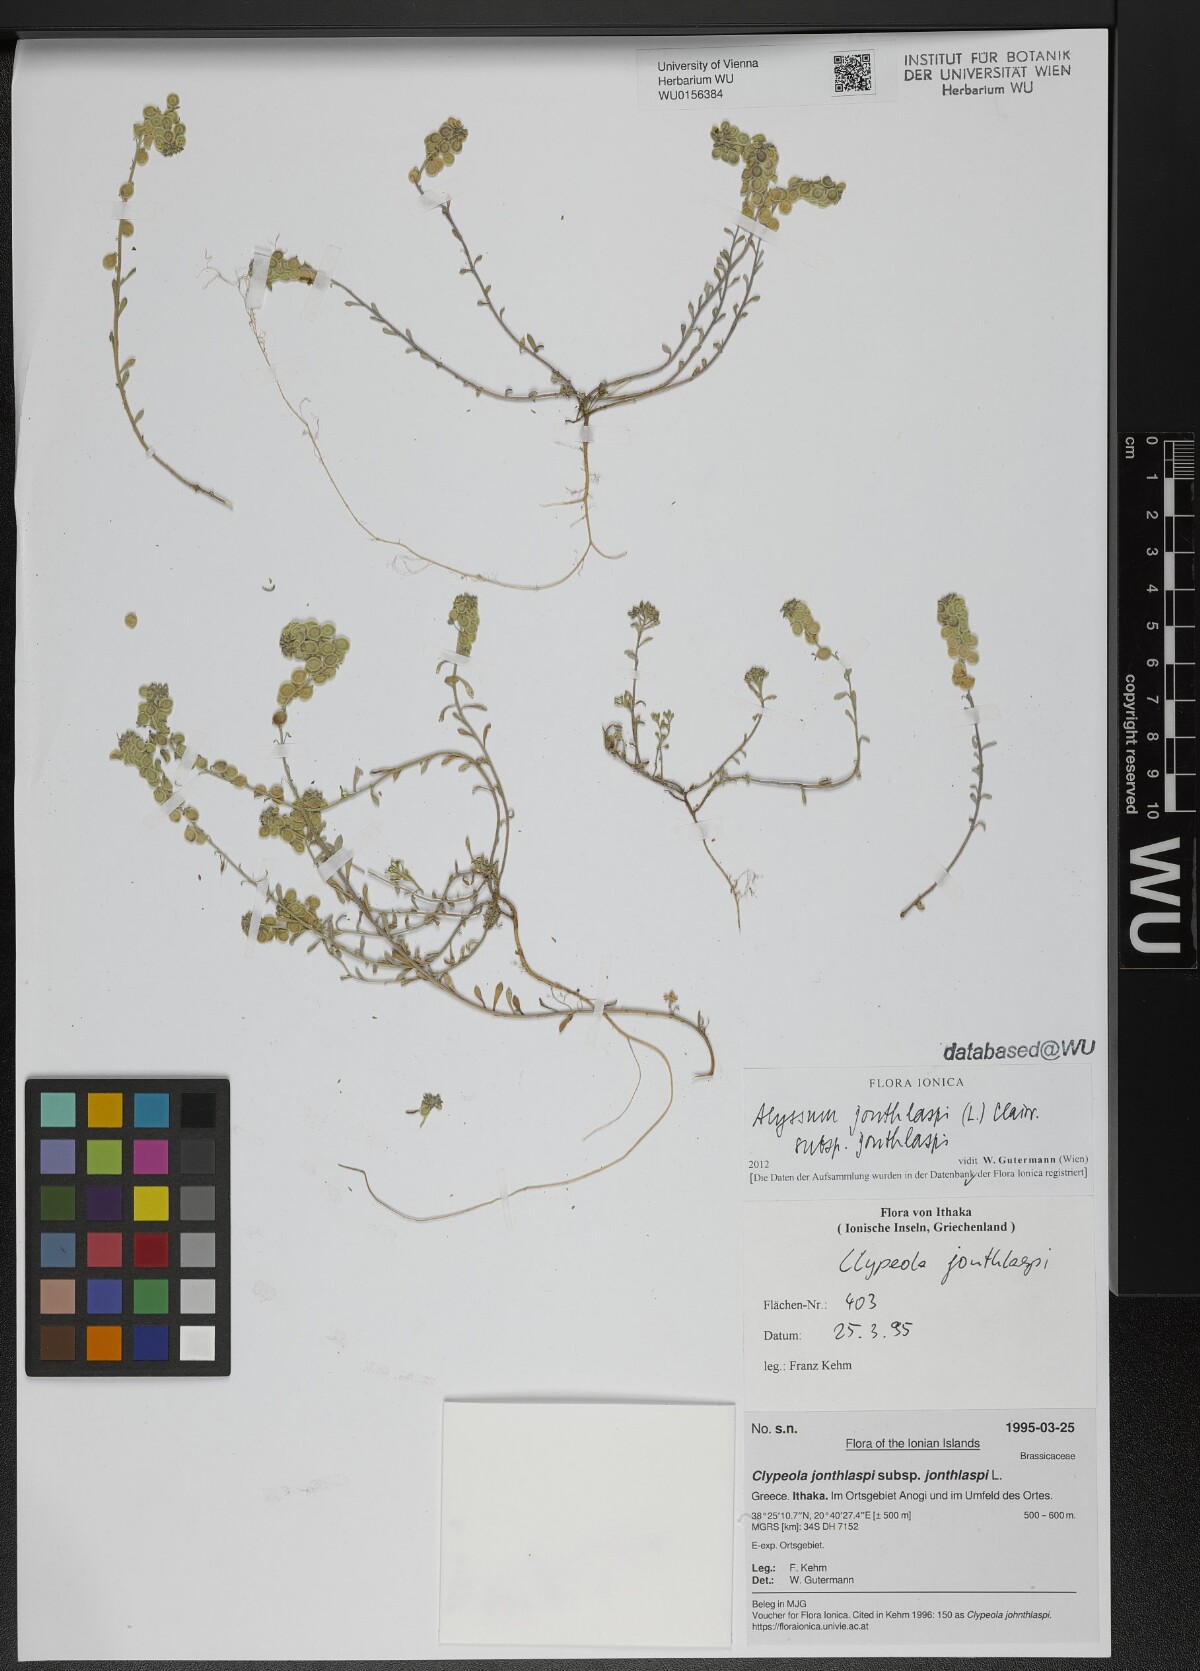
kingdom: Plantae
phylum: Tracheophyta
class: Magnoliopsida
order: Brassicales
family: Brassicaceae
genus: Clypeola
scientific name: Clypeola jonthlaspi
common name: Disk cress
